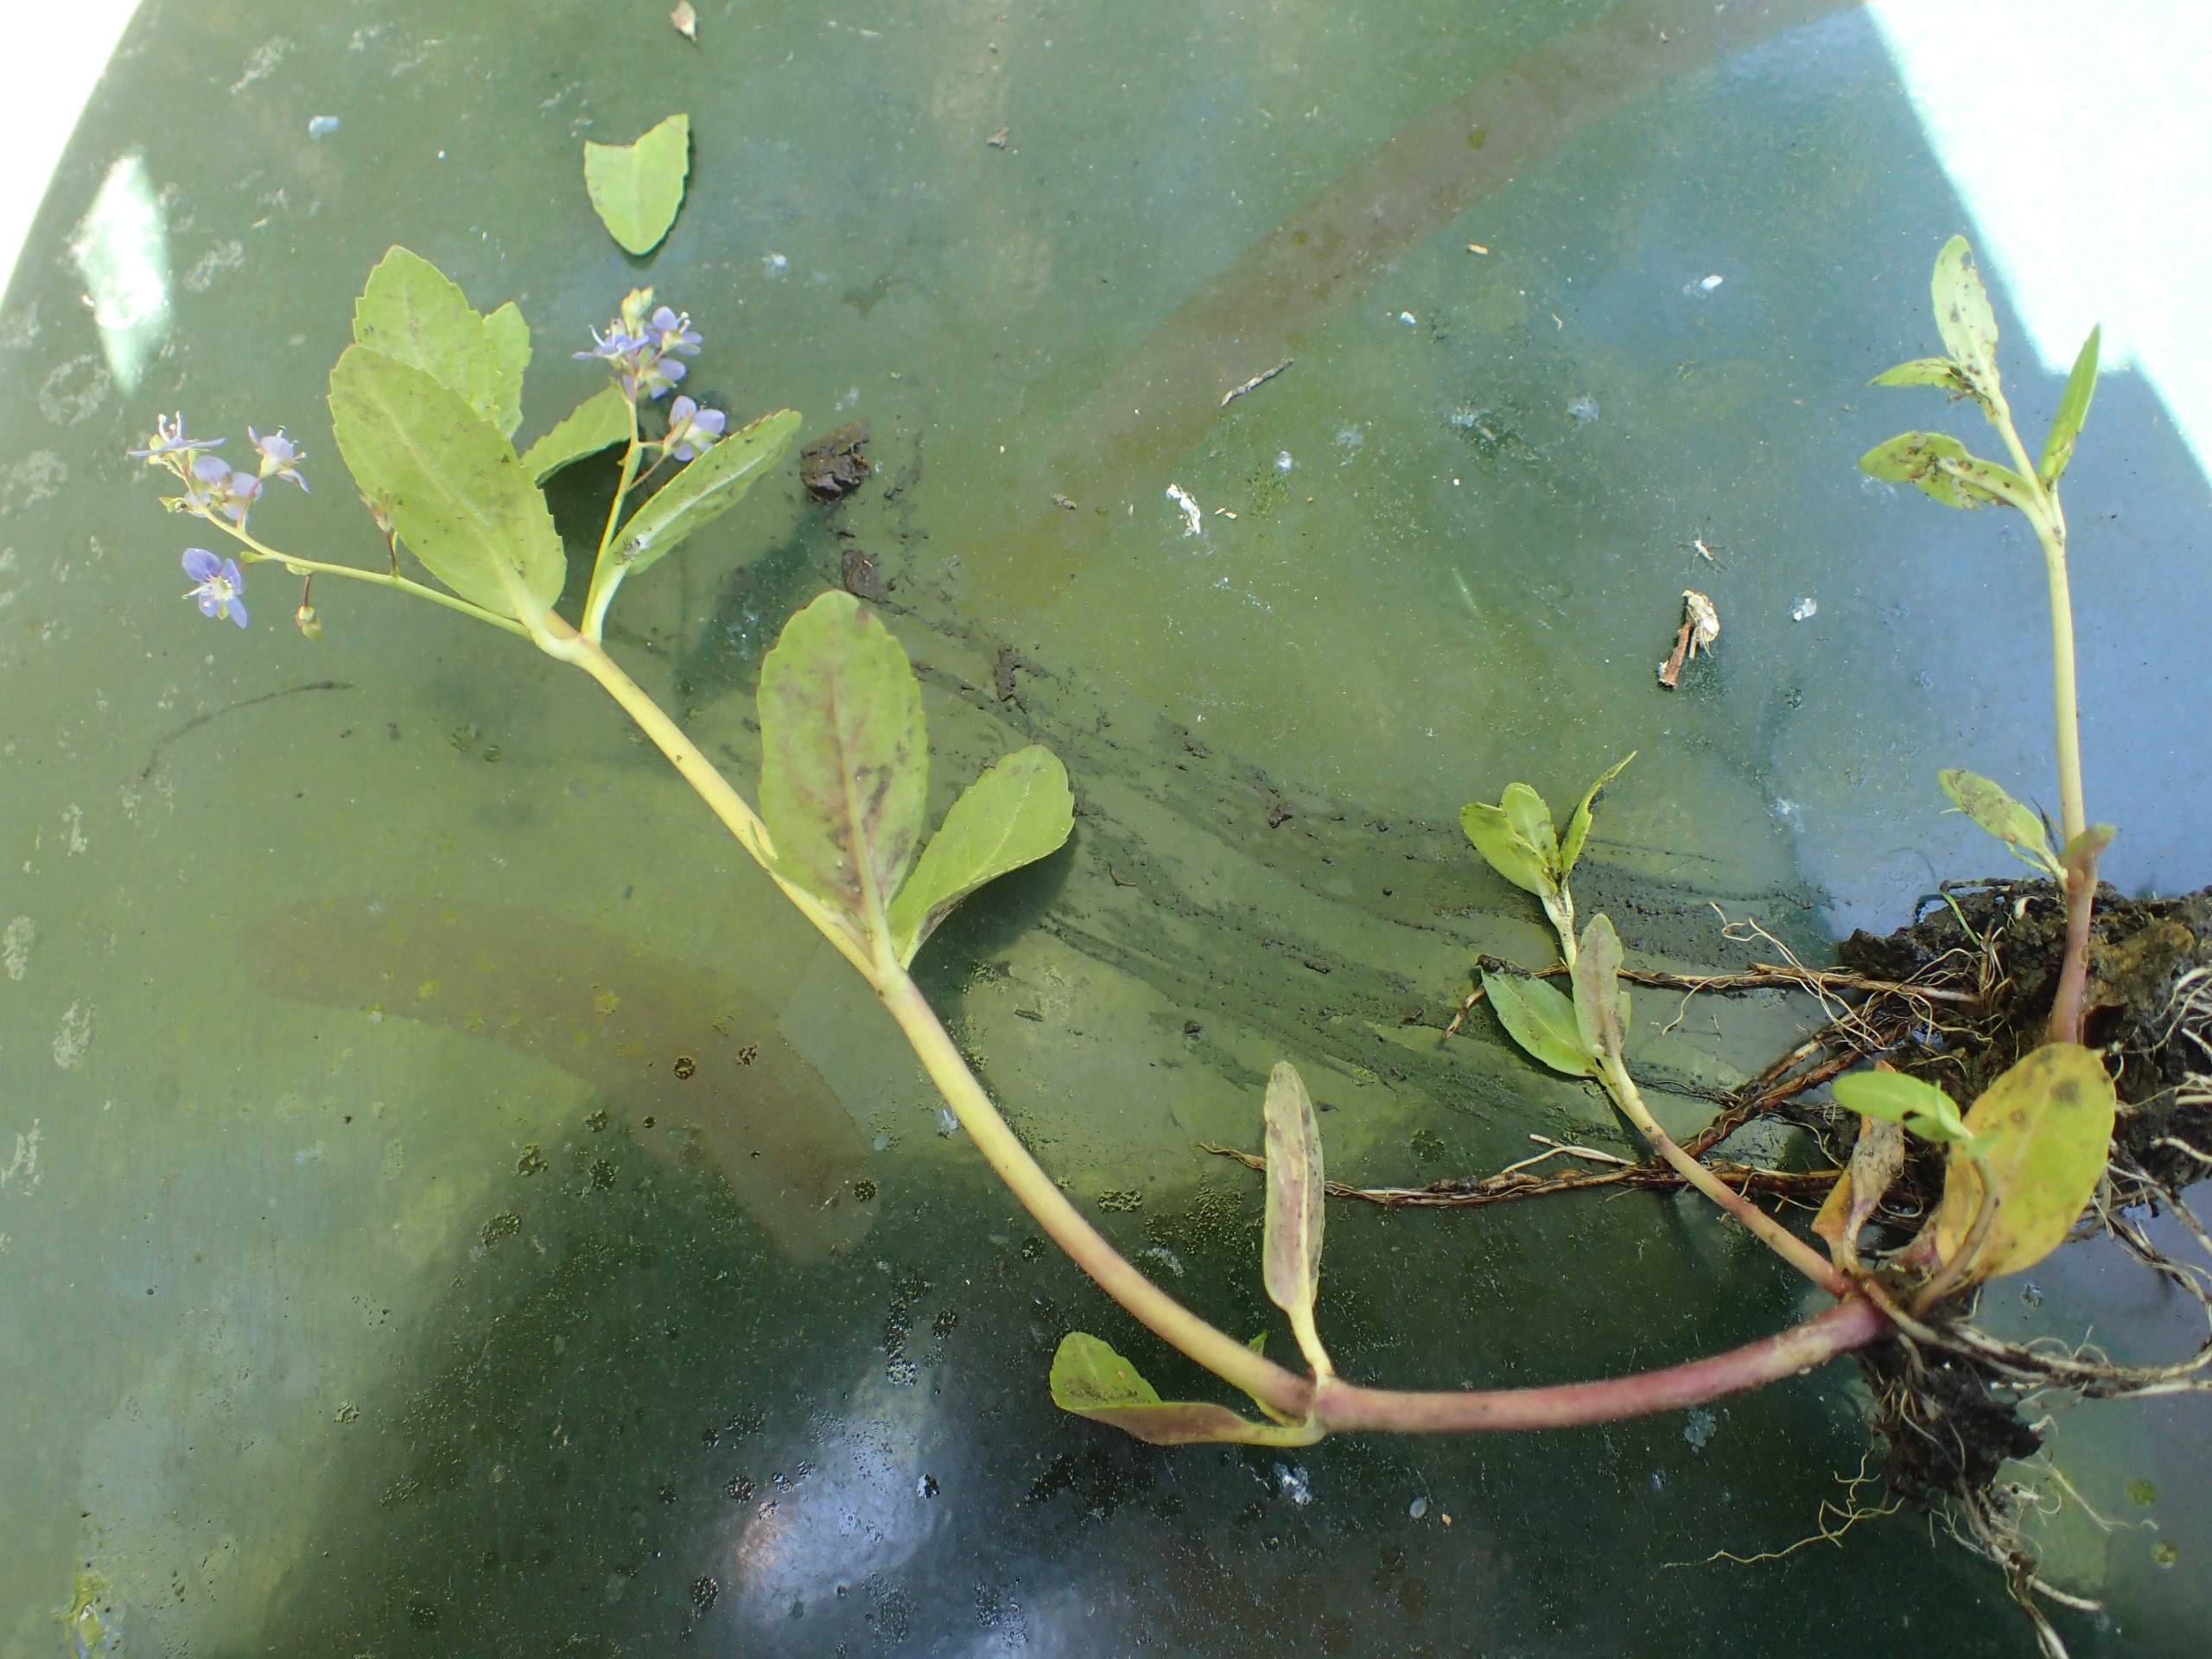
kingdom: Plantae
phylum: Tracheophyta
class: Magnoliopsida
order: Lamiales
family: Plantaginaceae
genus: Veronica
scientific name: Veronica beccabunga
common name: Tykbladet ærenpris
